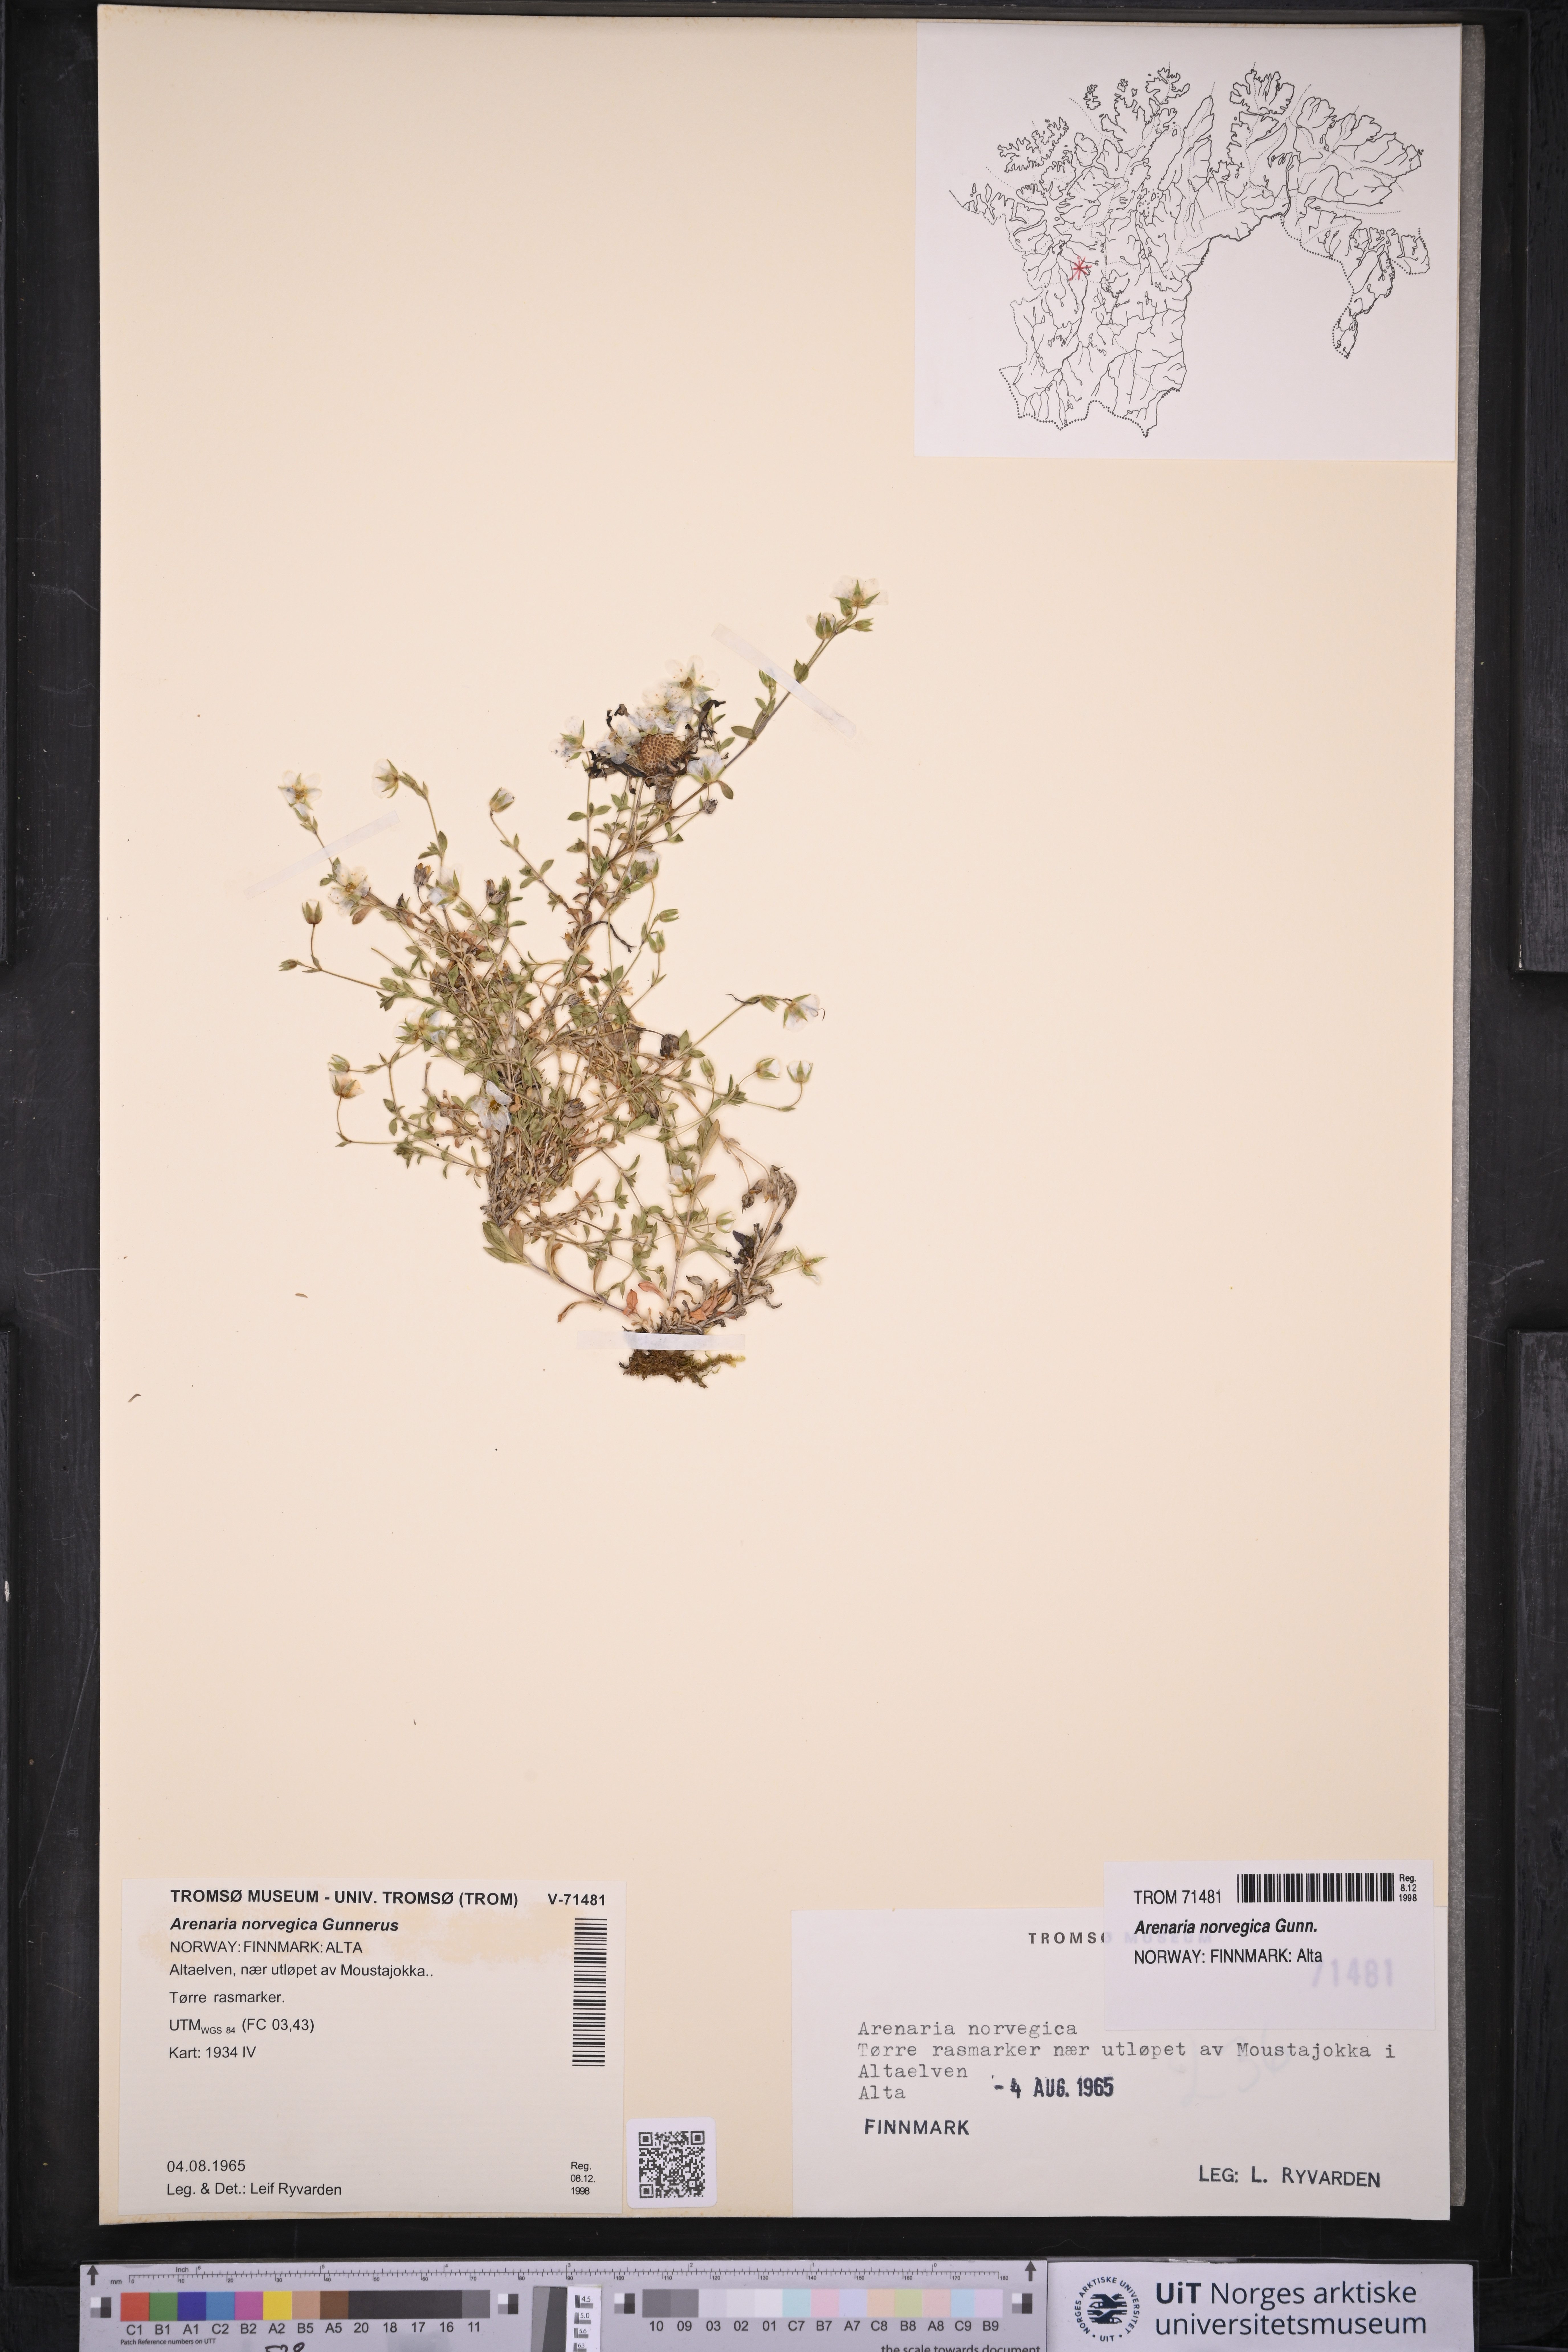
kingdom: Plantae
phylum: Tracheophyta
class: Magnoliopsida
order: Caryophyllales
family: Caryophyllaceae
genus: Arenaria
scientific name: Arenaria norvegica
